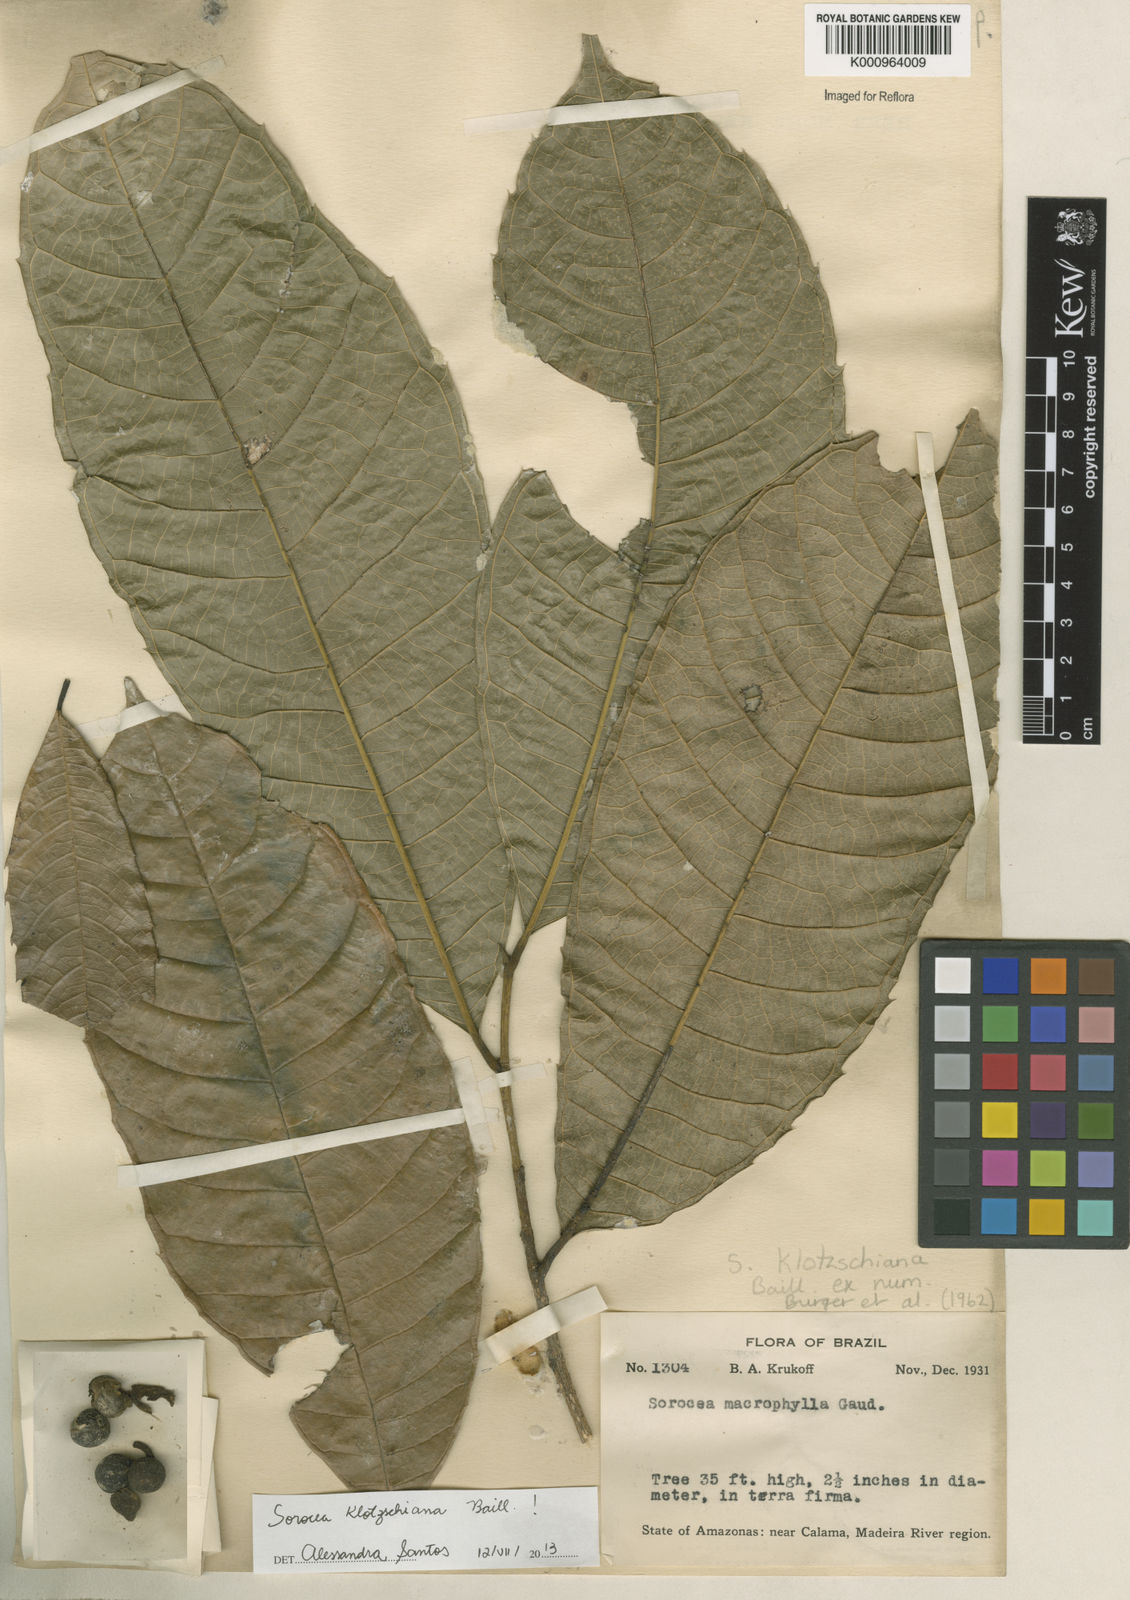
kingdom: Plantae
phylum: Tracheophyta
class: Magnoliopsida
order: Rosales
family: Moraceae
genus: Sorocea
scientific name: Sorocea guilleminiana
